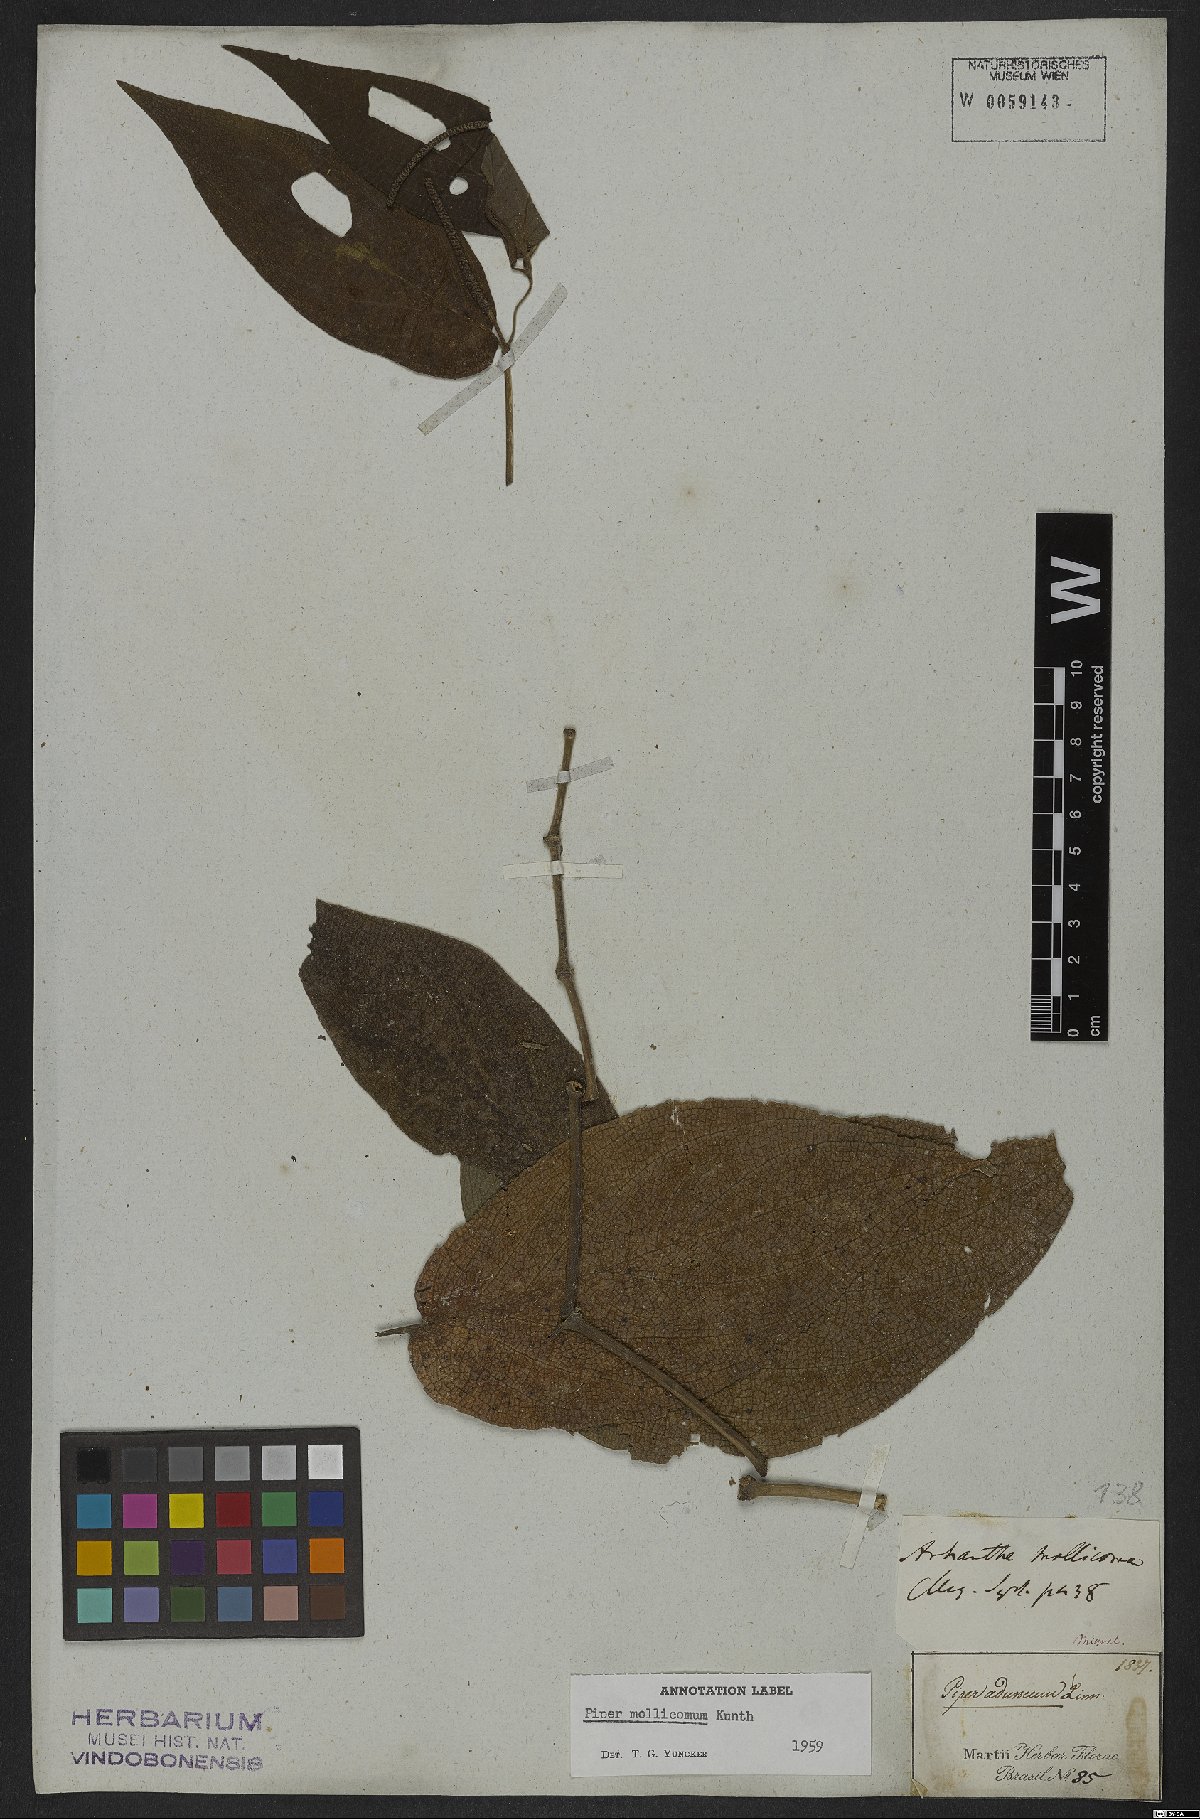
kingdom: Plantae
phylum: Tracheophyta
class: Magnoliopsida
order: Piperales
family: Piperaceae
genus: Piper
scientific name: Piper mollicomum
